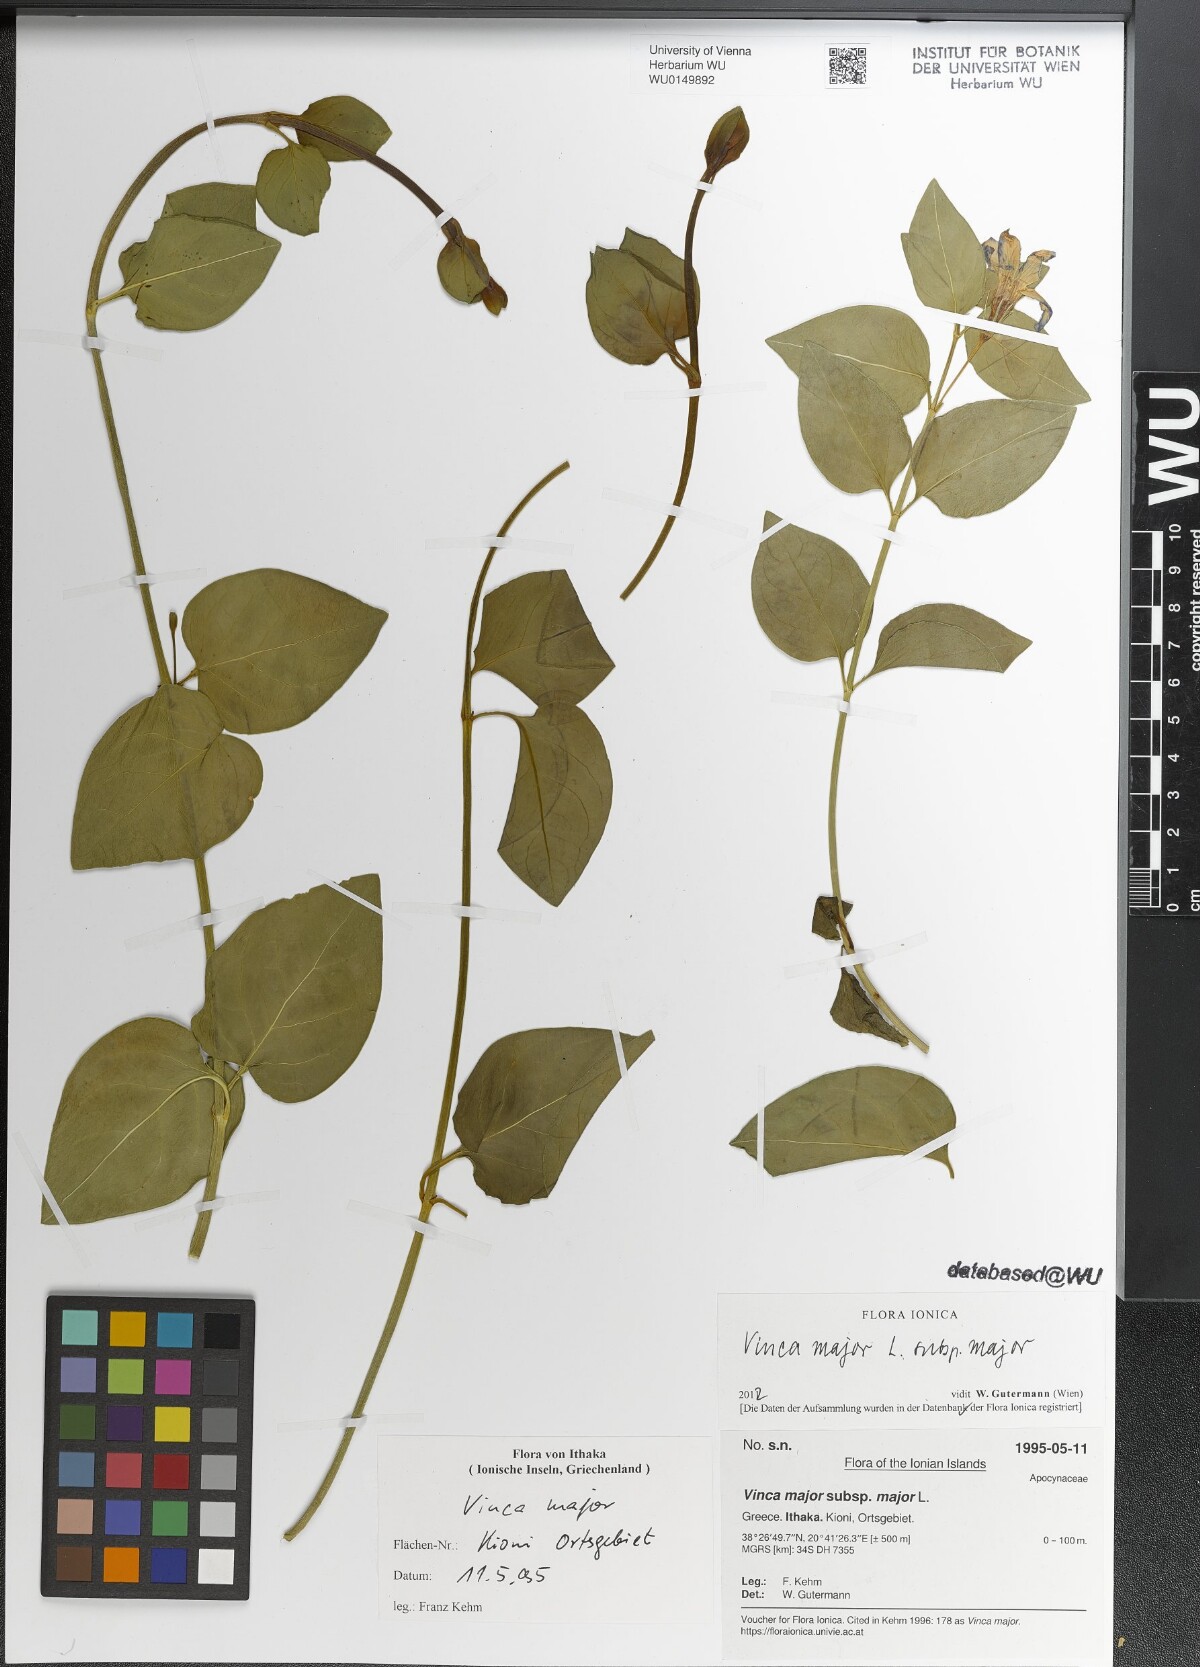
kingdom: Plantae
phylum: Tracheophyta
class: Magnoliopsida
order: Gentianales
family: Apocynaceae
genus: Vinca
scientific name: Vinca major
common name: Greater periwinkle
